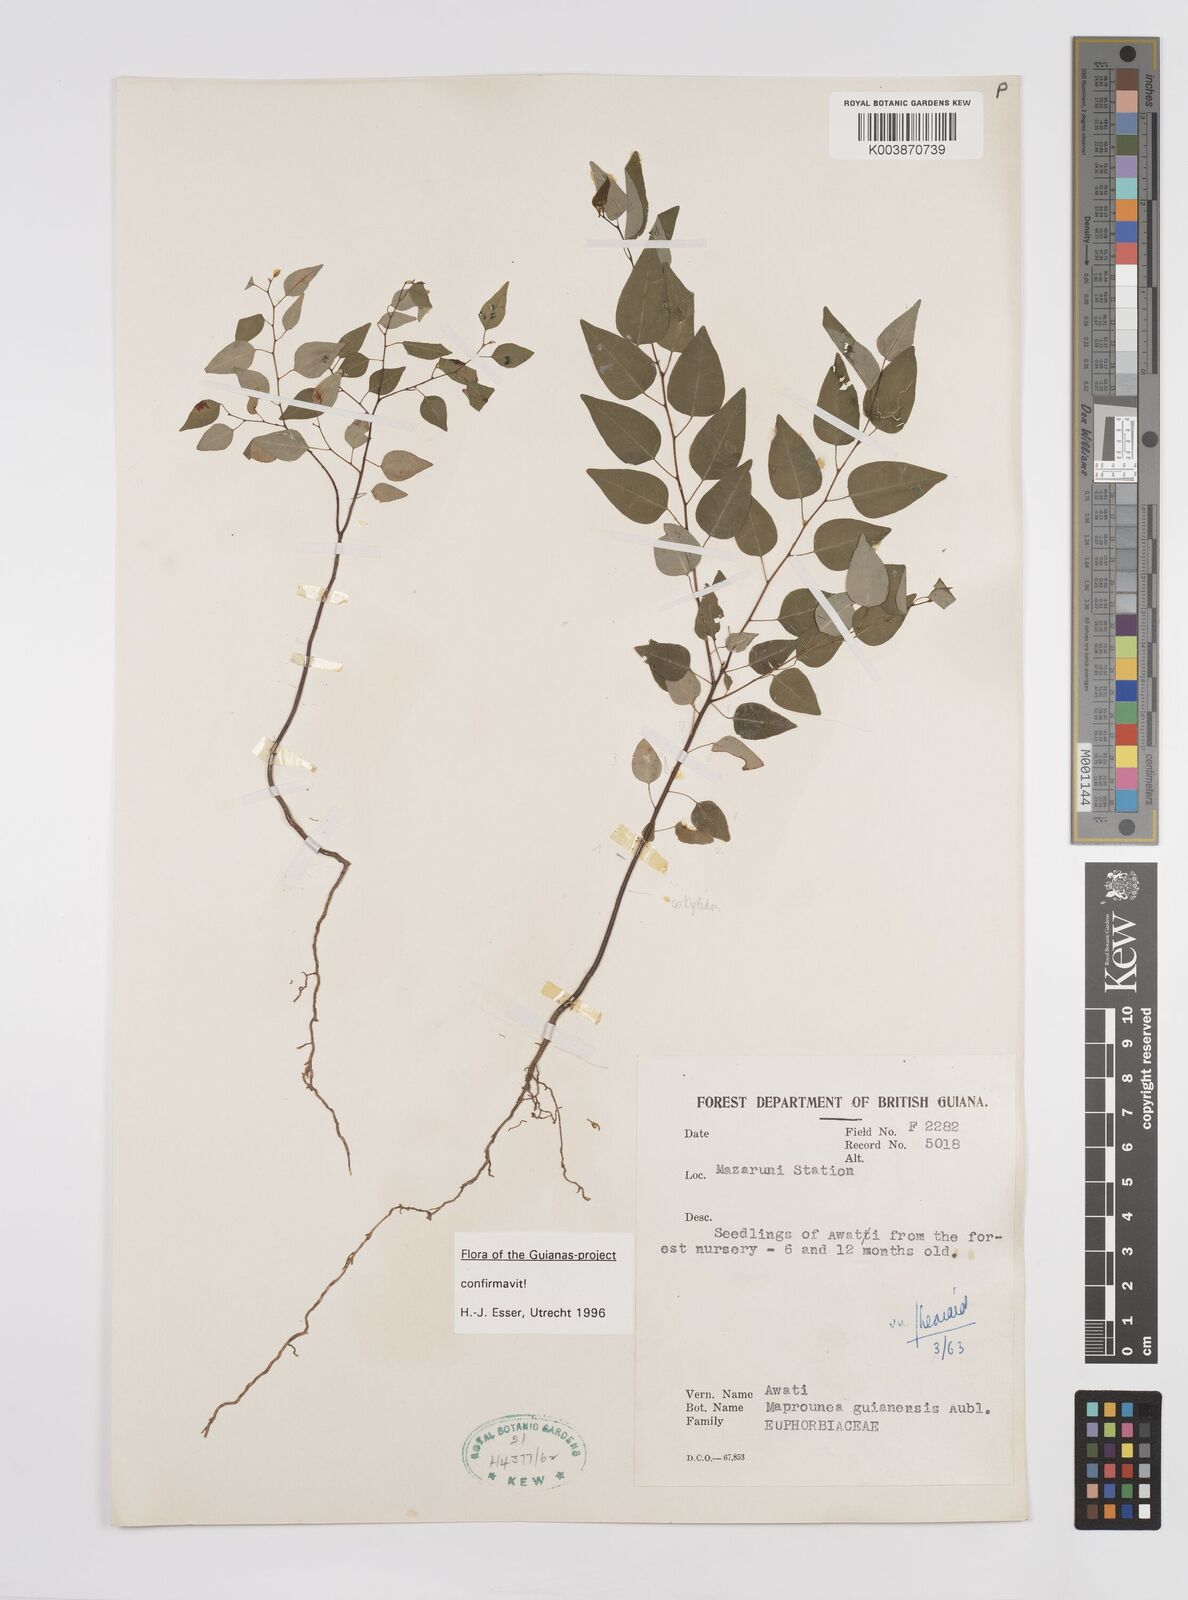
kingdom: Plantae
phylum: Tracheophyta
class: Magnoliopsida
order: Malpighiales
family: Euphorbiaceae
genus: Maprounea
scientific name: Maprounea guianensis
